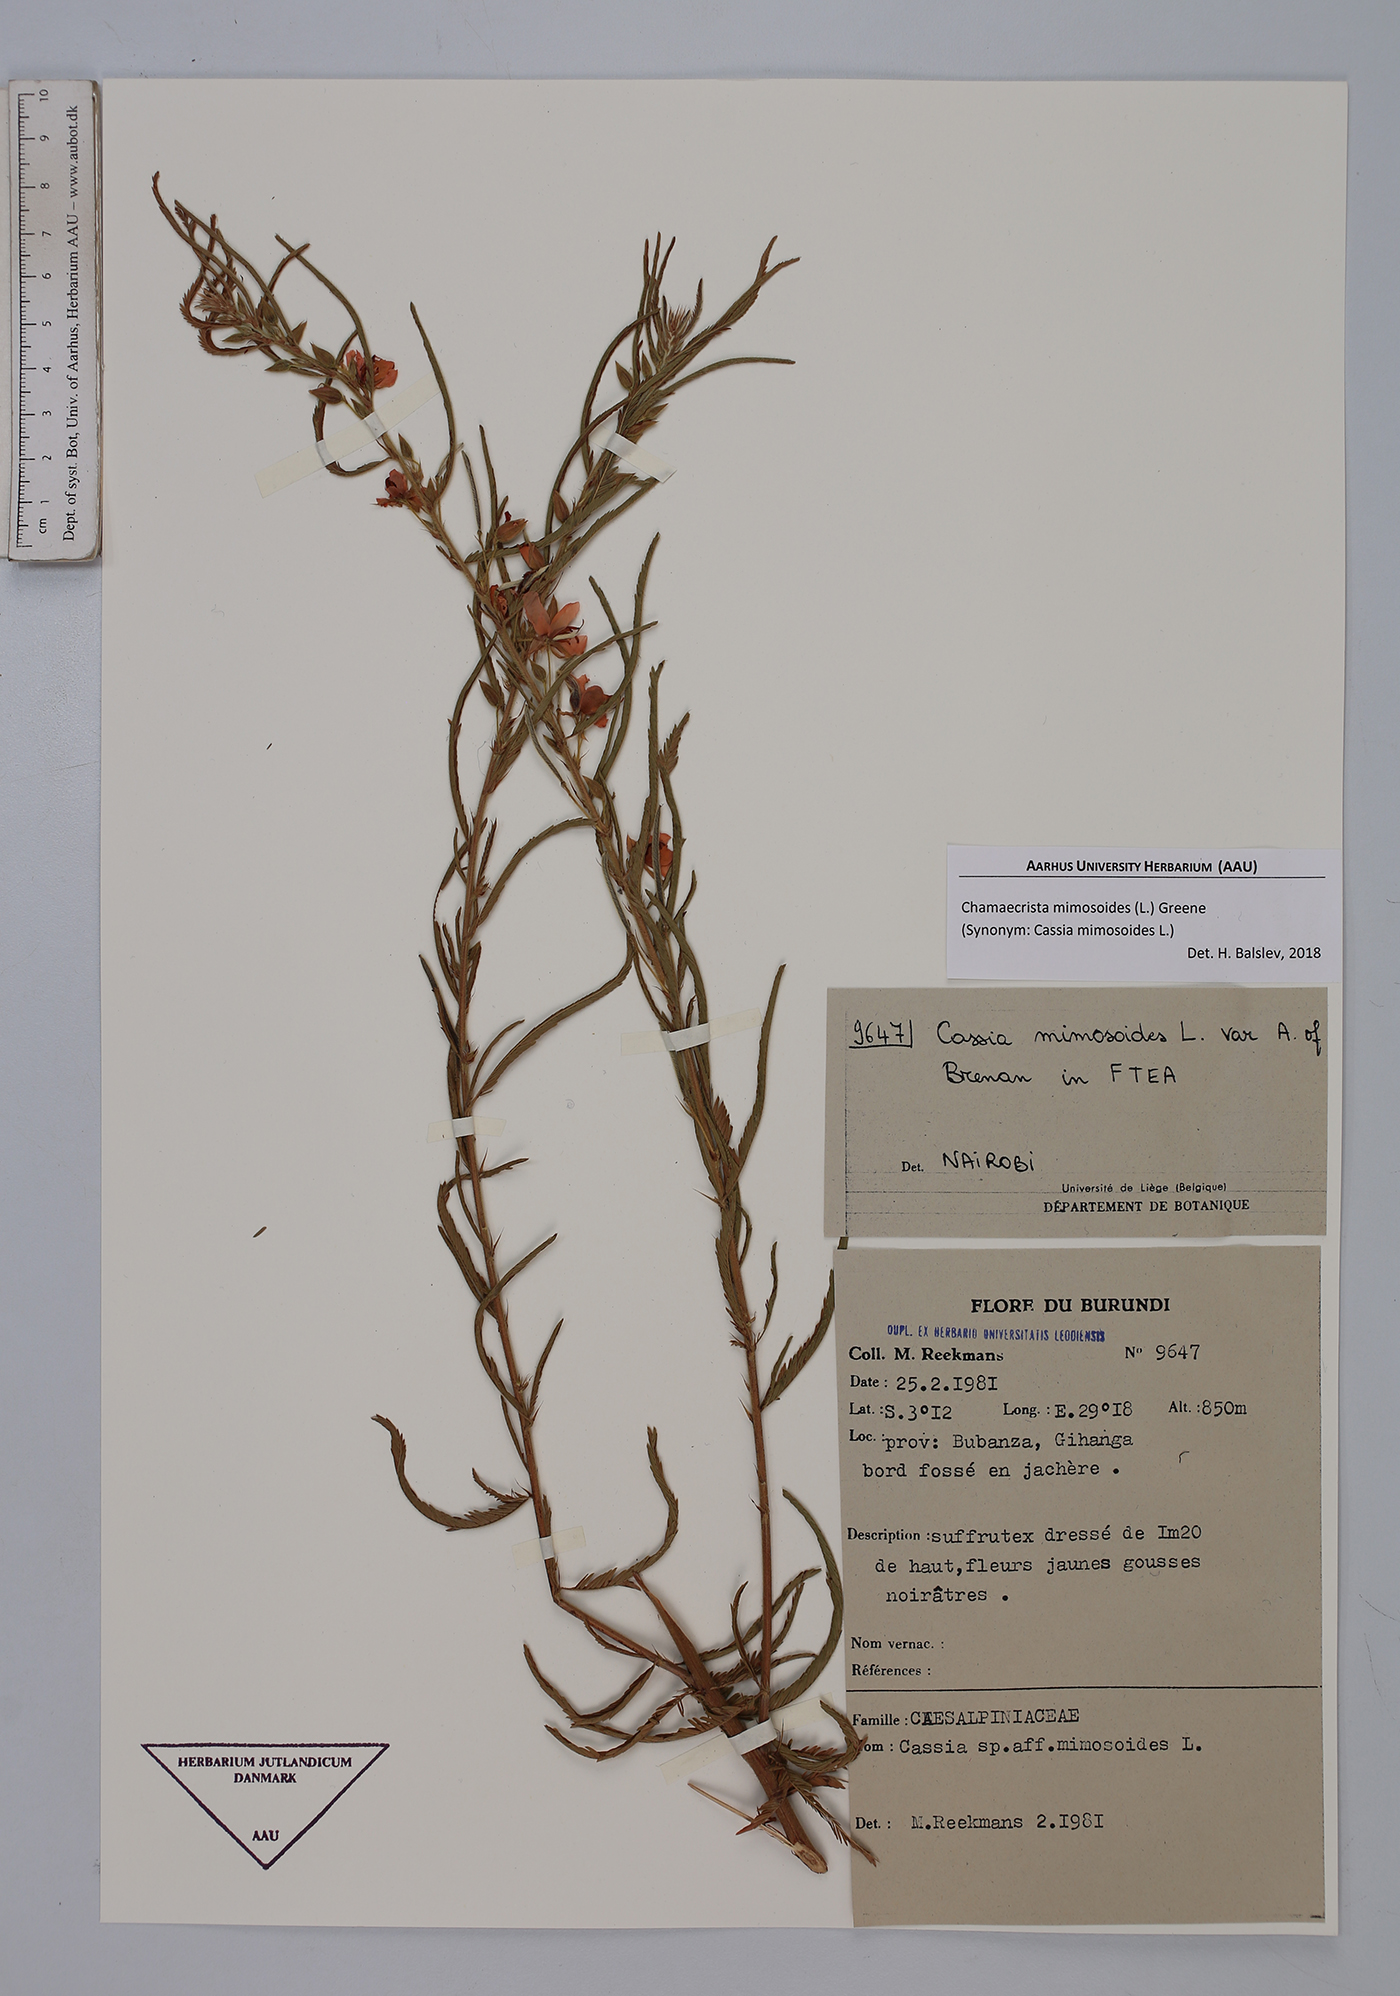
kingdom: Plantae
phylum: Tracheophyta
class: Magnoliopsida
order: Fabales
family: Fabaceae
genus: Chamaecrista
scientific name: Chamaecrista mimosoides
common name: Fish-bone cassia
